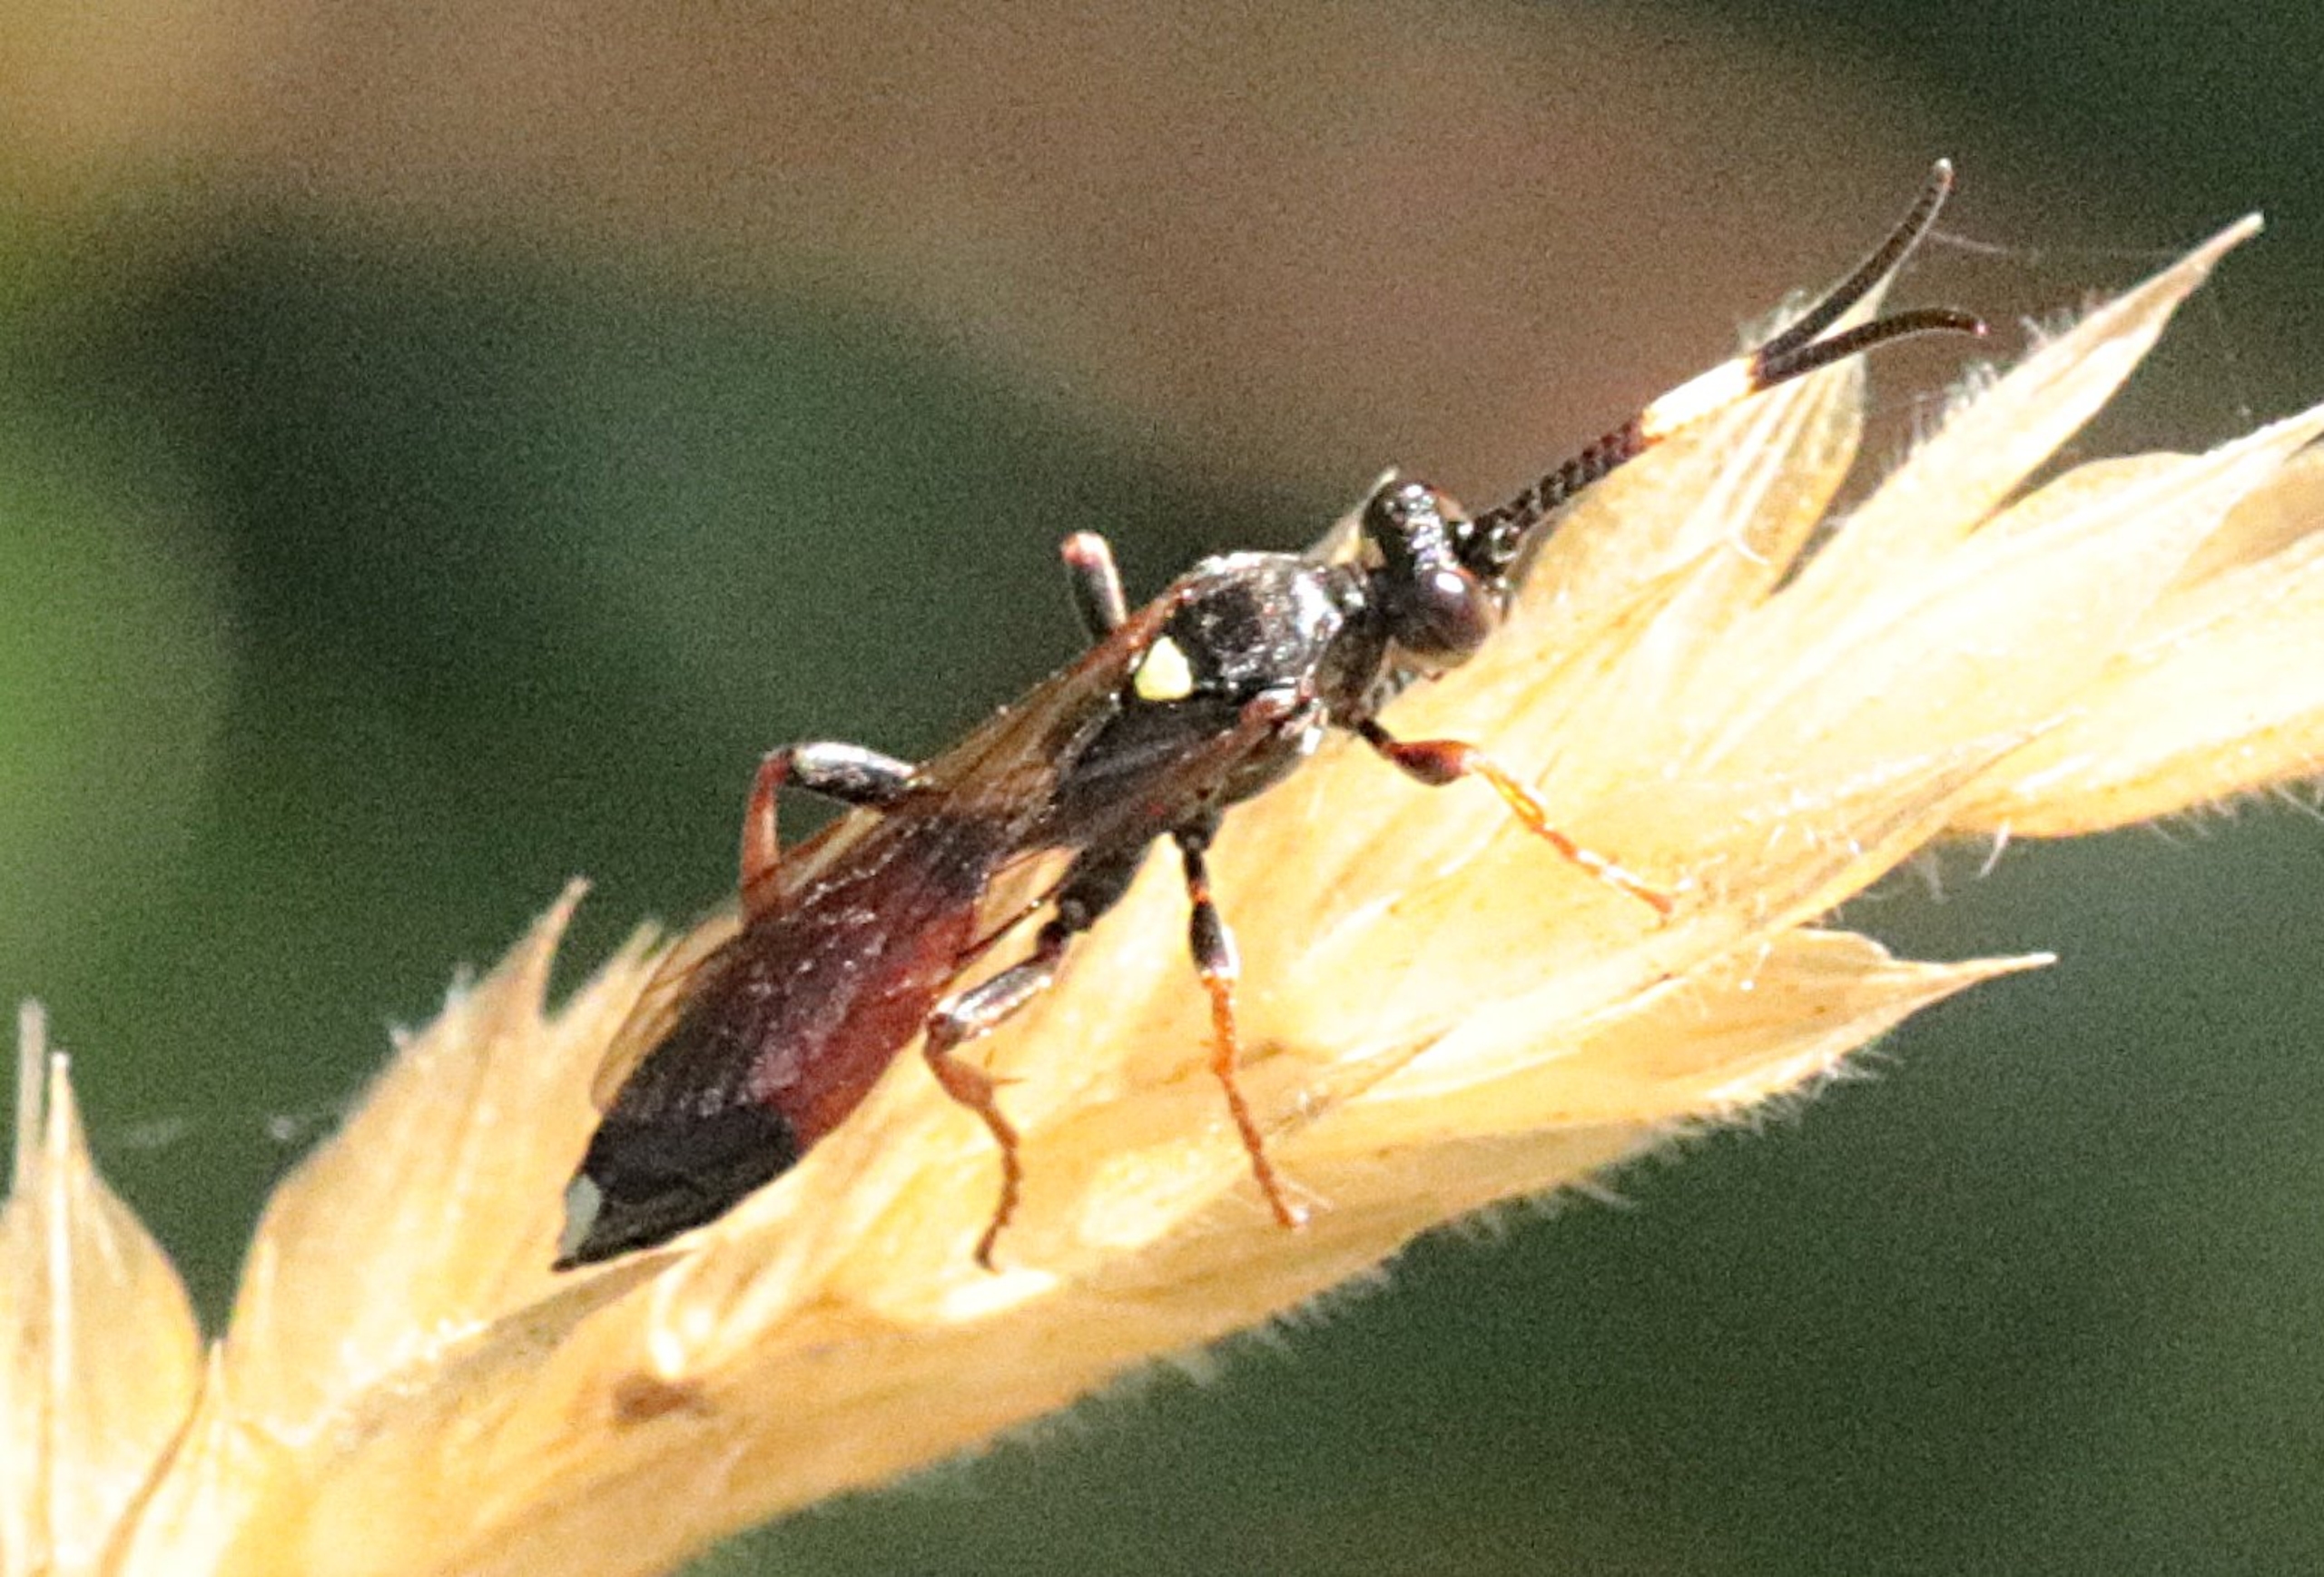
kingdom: Animalia
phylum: Arthropoda
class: Insecta
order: Hymenoptera
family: Ichneumonidae
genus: Ichneumon
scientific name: Ichneumon
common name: Ichneumon
